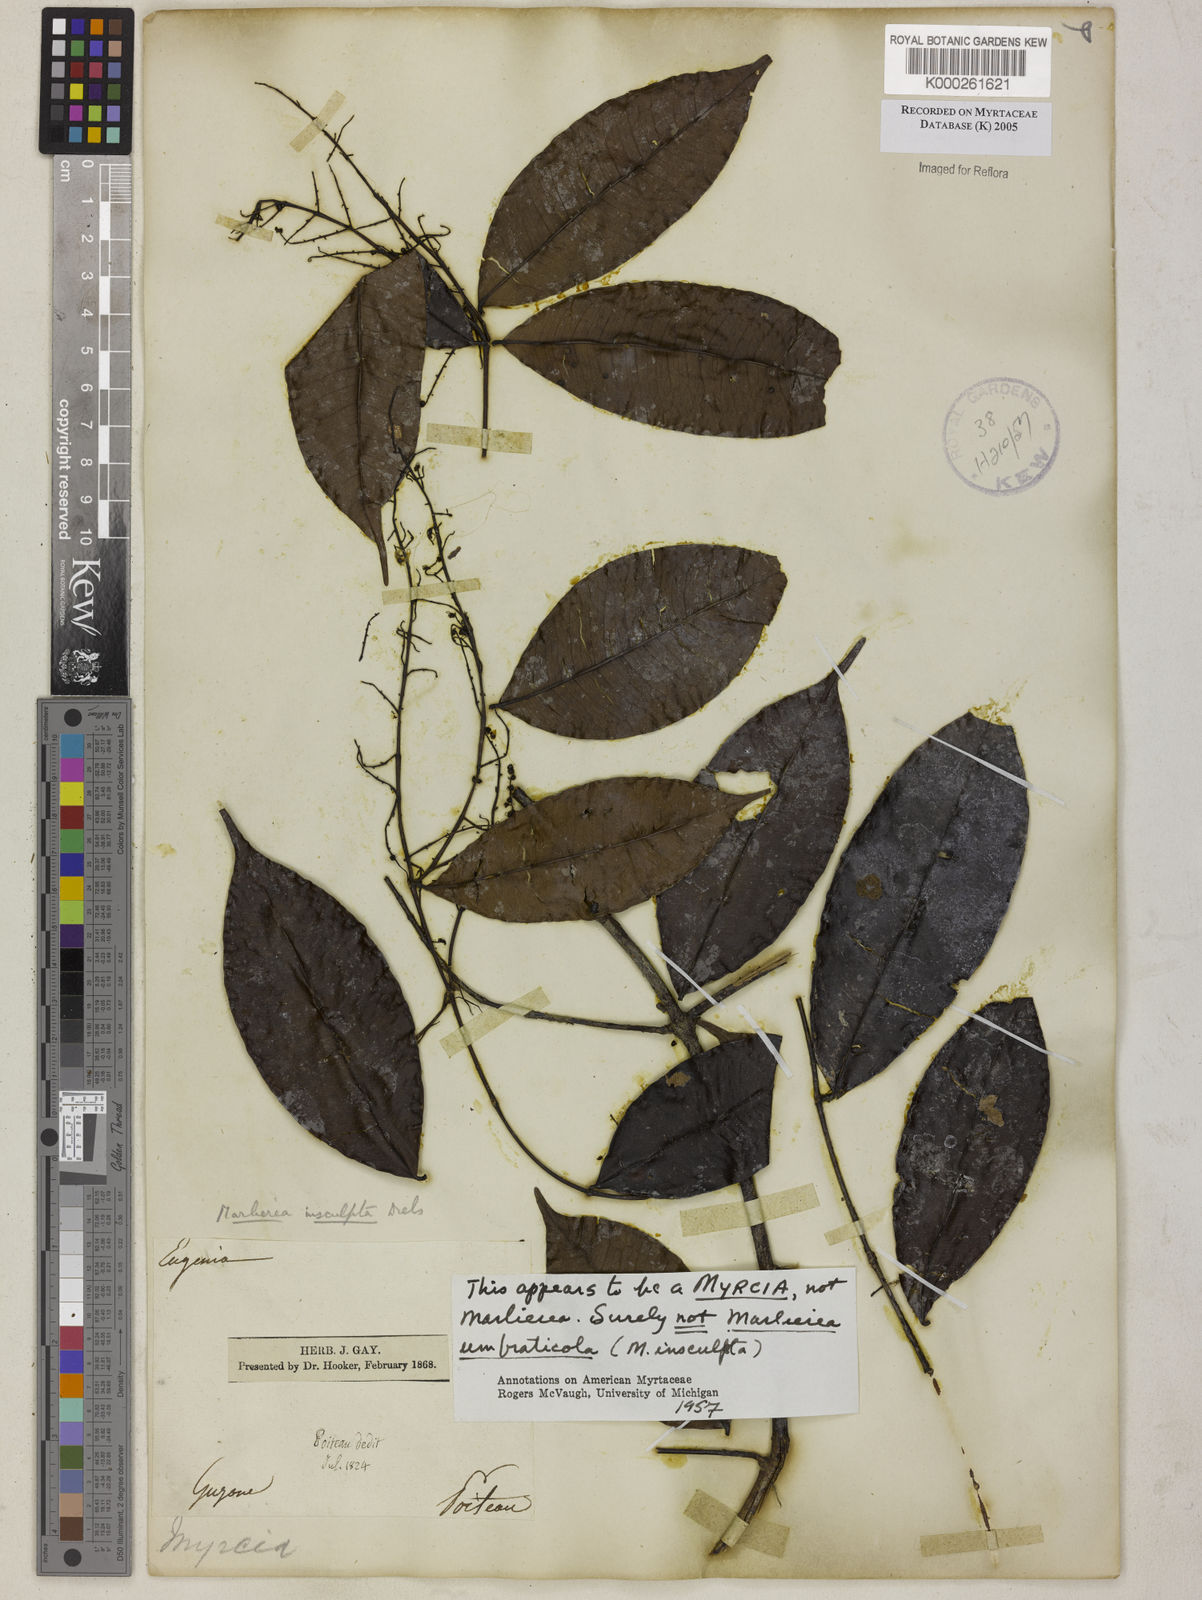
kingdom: Plantae
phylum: Tracheophyta
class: Magnoliopsida
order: Myrtales
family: Myrtaceae
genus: Myrcia
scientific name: Myrcia
